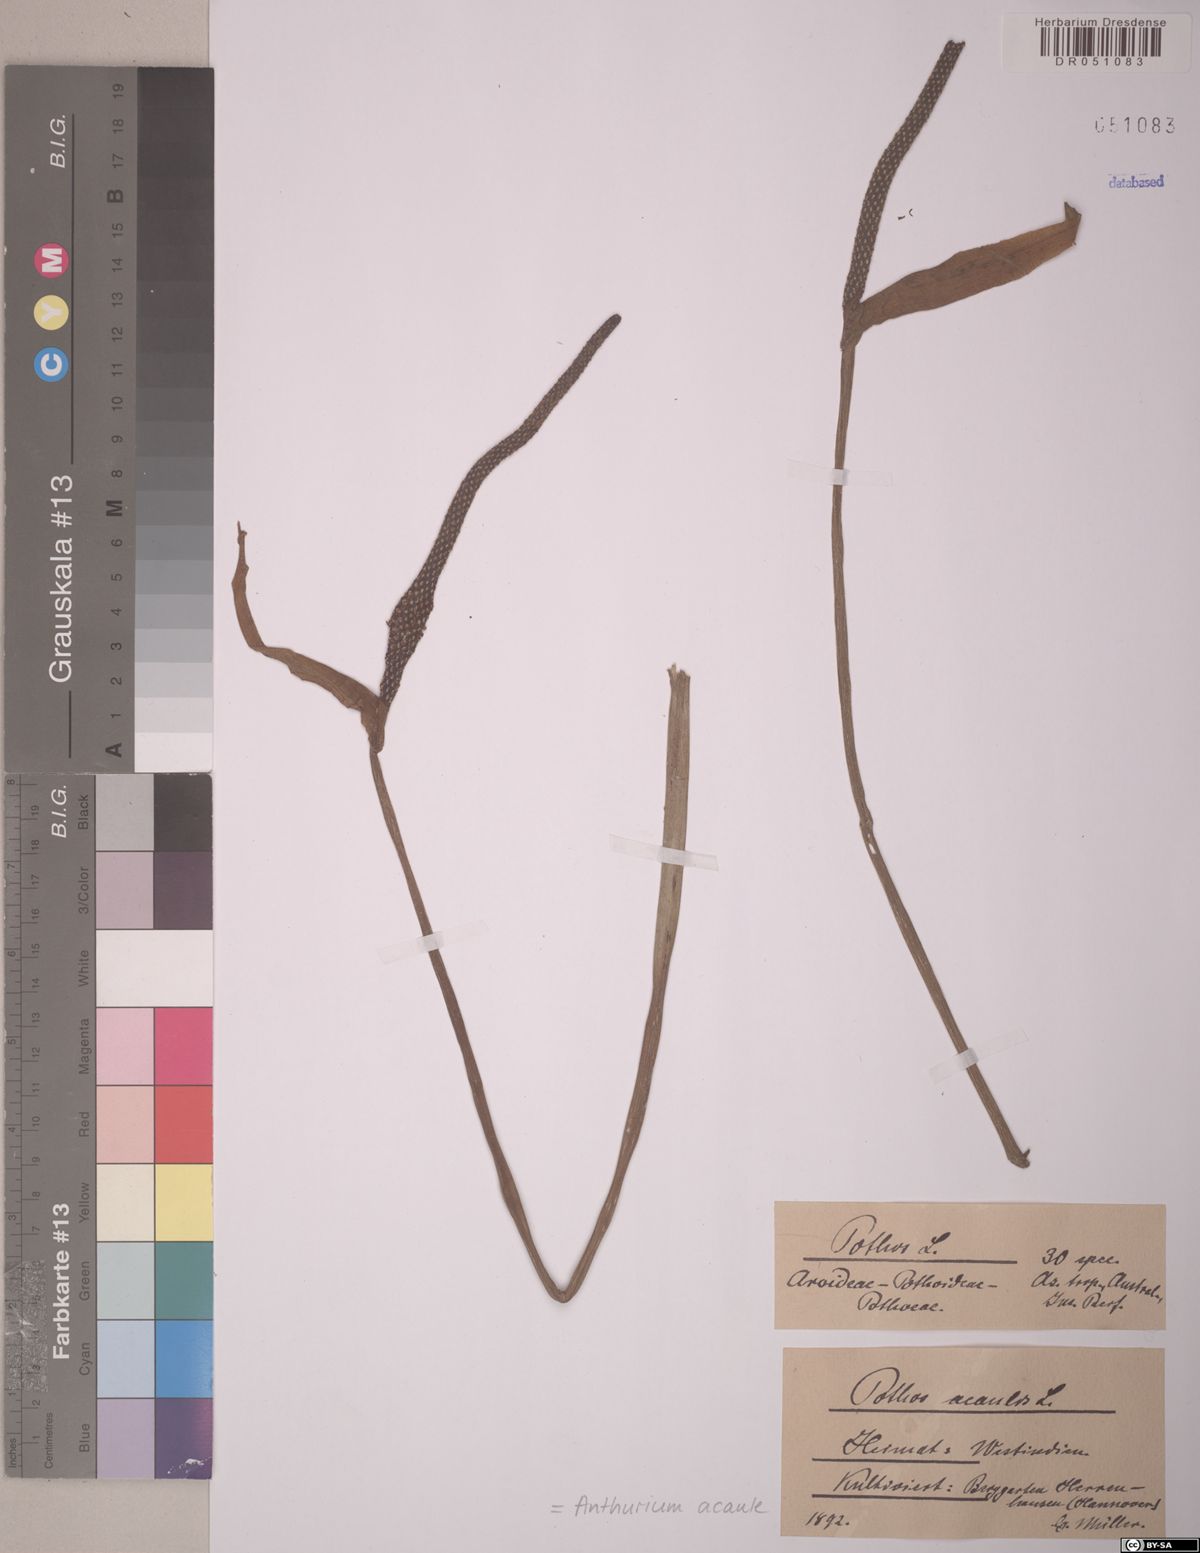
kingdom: Plantae
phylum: Tracheophyta
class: Liliopsida
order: Alismatales
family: Araceae
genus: Anthurium
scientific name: Anthurium acaule
